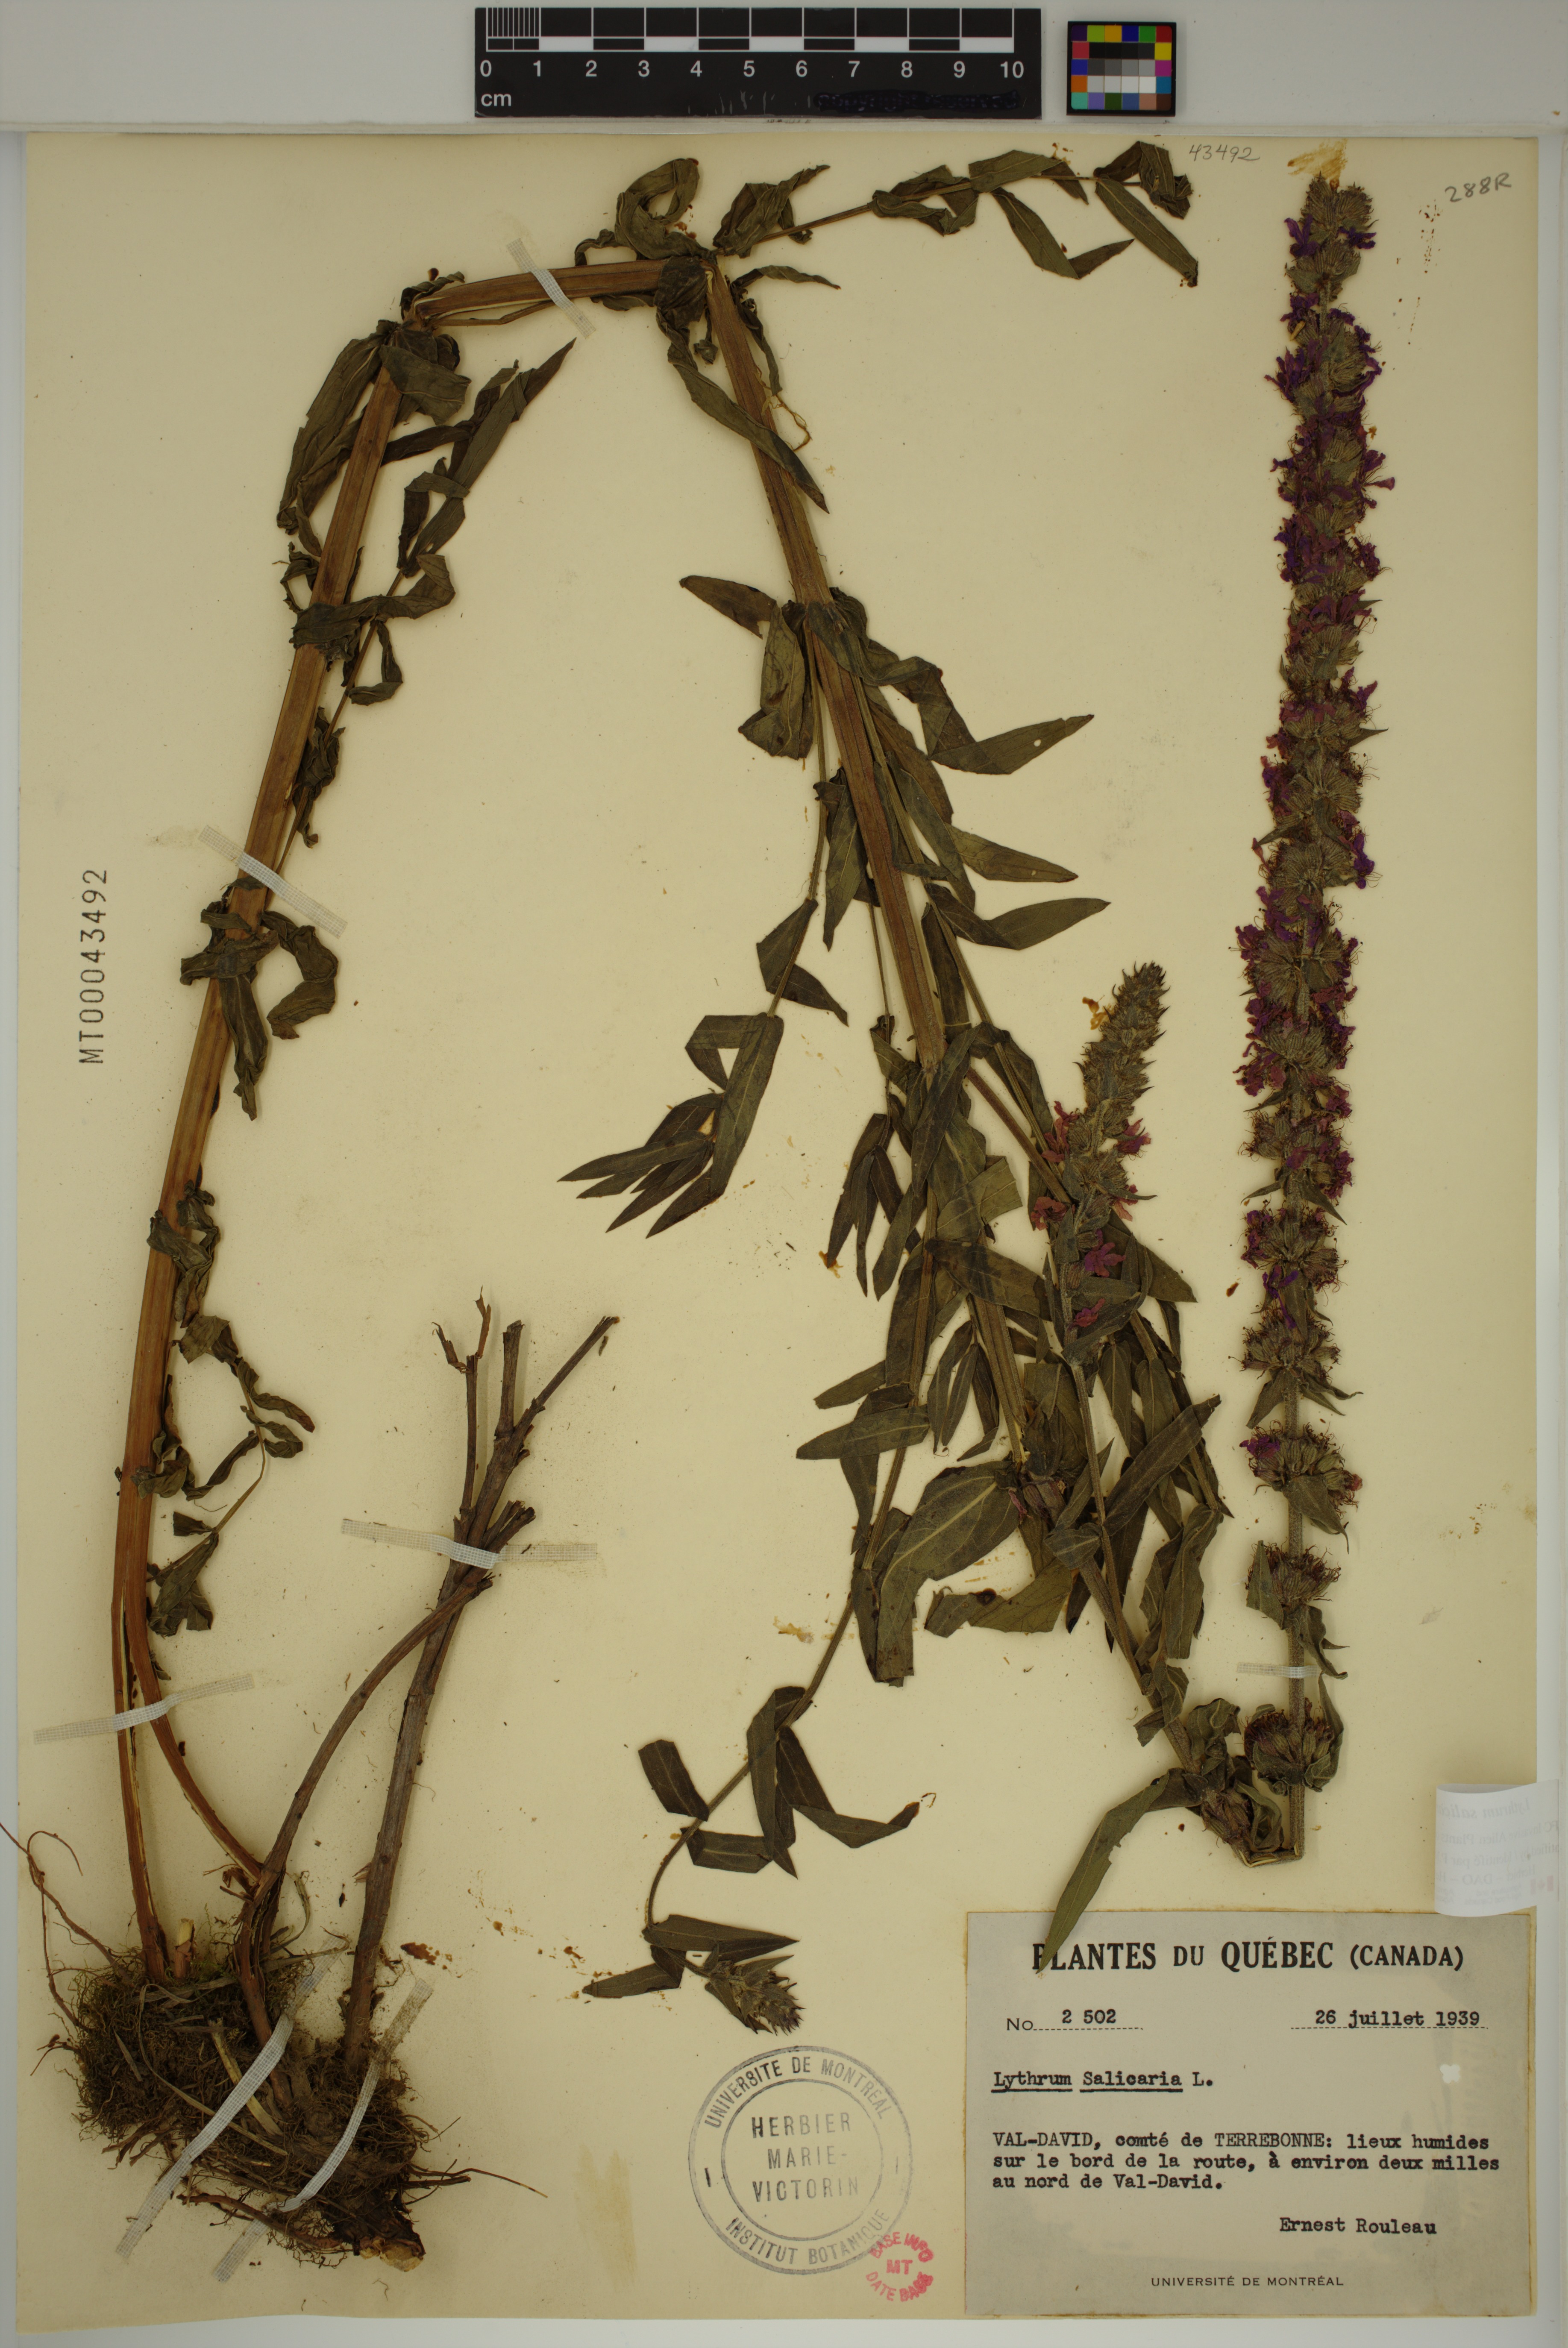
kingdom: Plantae
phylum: Tracheophyta
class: Magnoliopsida
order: Myrtales
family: Lythraceae
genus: Lythrum
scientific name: Lythrum salicaria
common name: Purple loosestrife
